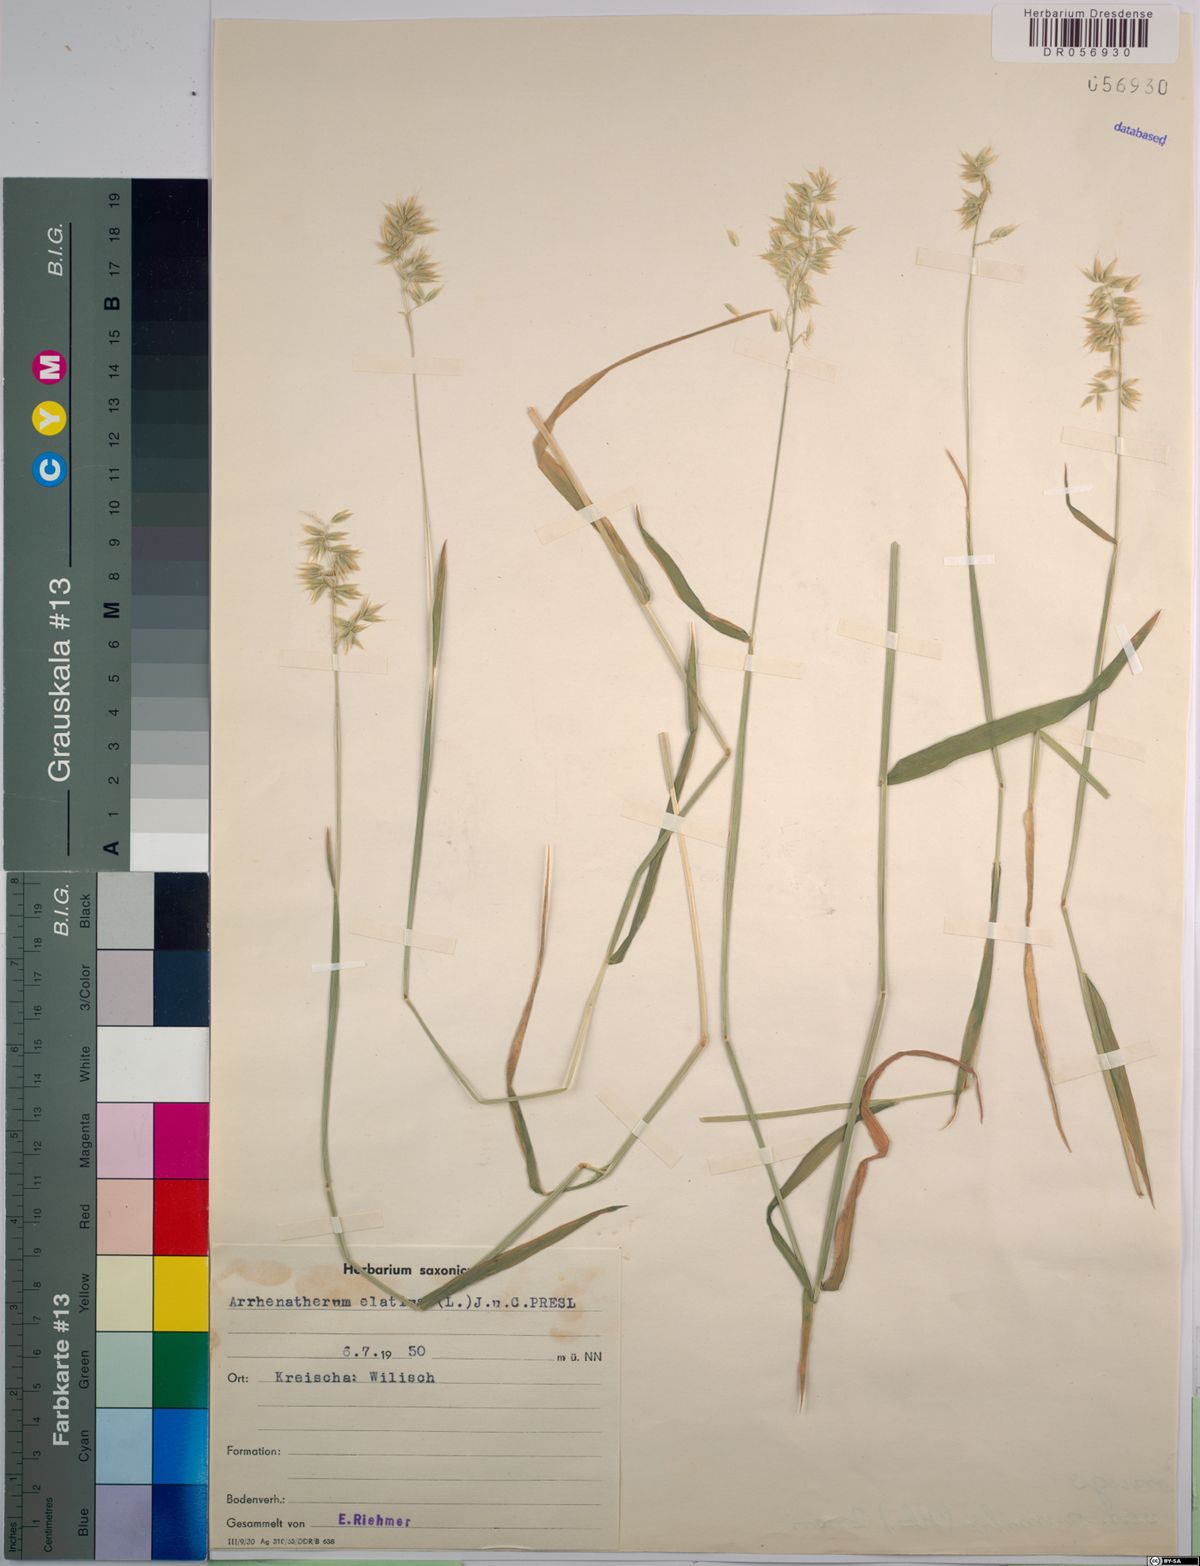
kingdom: Plantae
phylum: Tracheophyta
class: Liliopsida
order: Poales
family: Poaceae
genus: Arrhenatherum
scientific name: Arrhenatherum elatius
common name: Tall oatgrass
